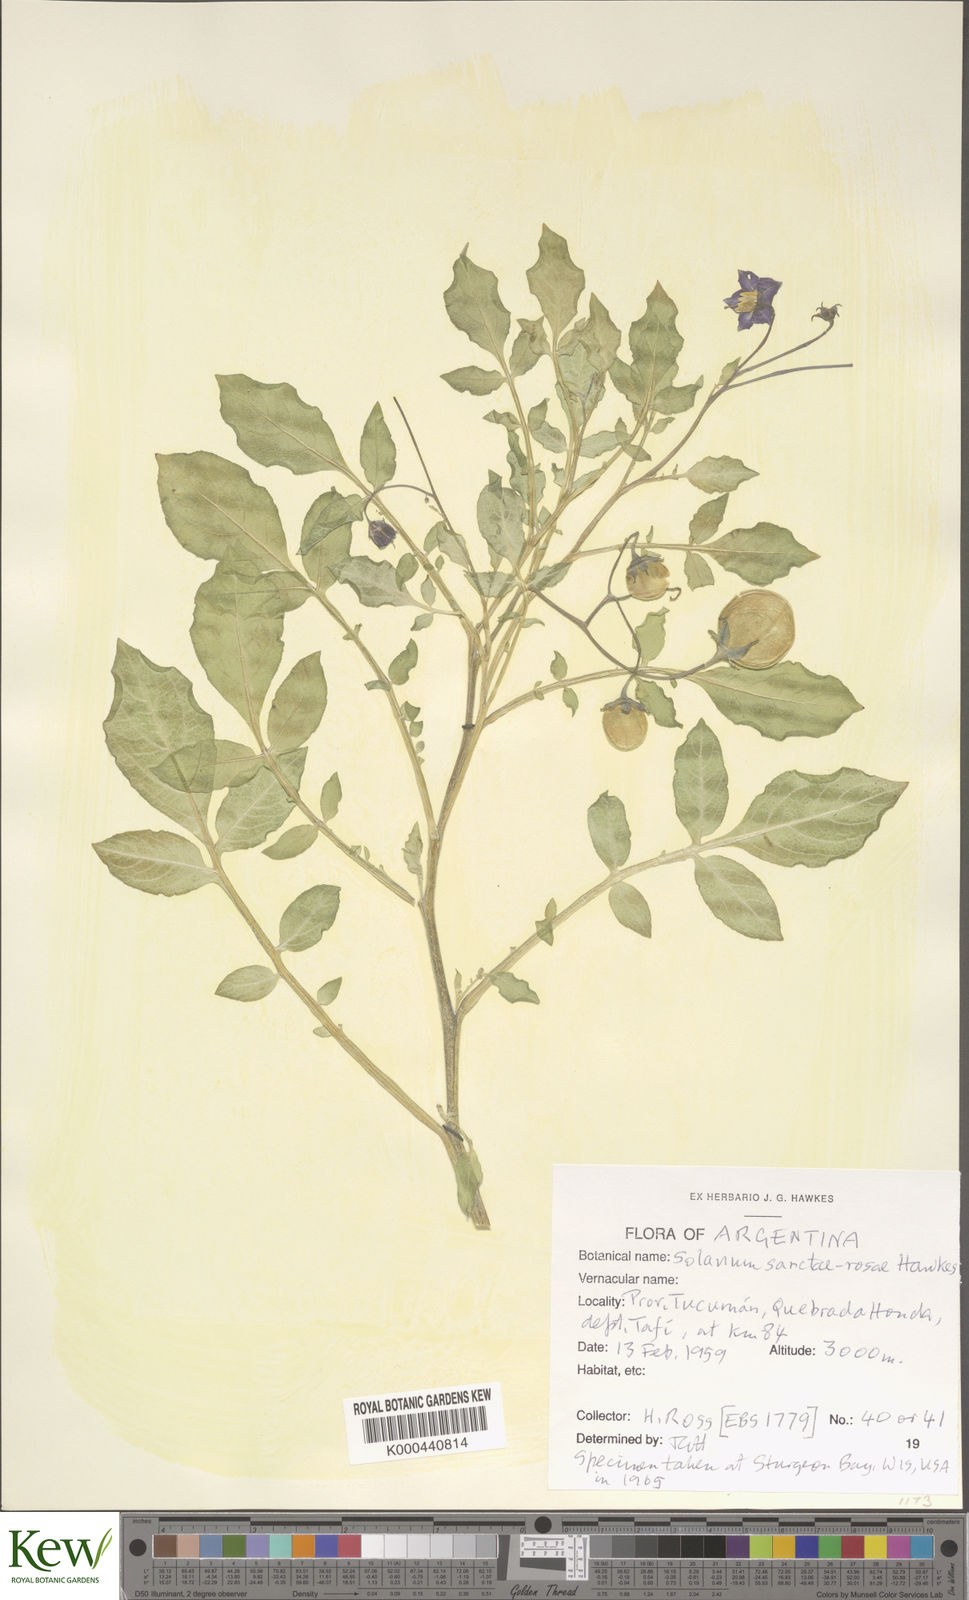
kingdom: Plantae
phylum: Tracheophyta
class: Magnoliopsida
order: Solanales
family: Solanaceae
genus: Solanum
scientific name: Solanum boliviense
